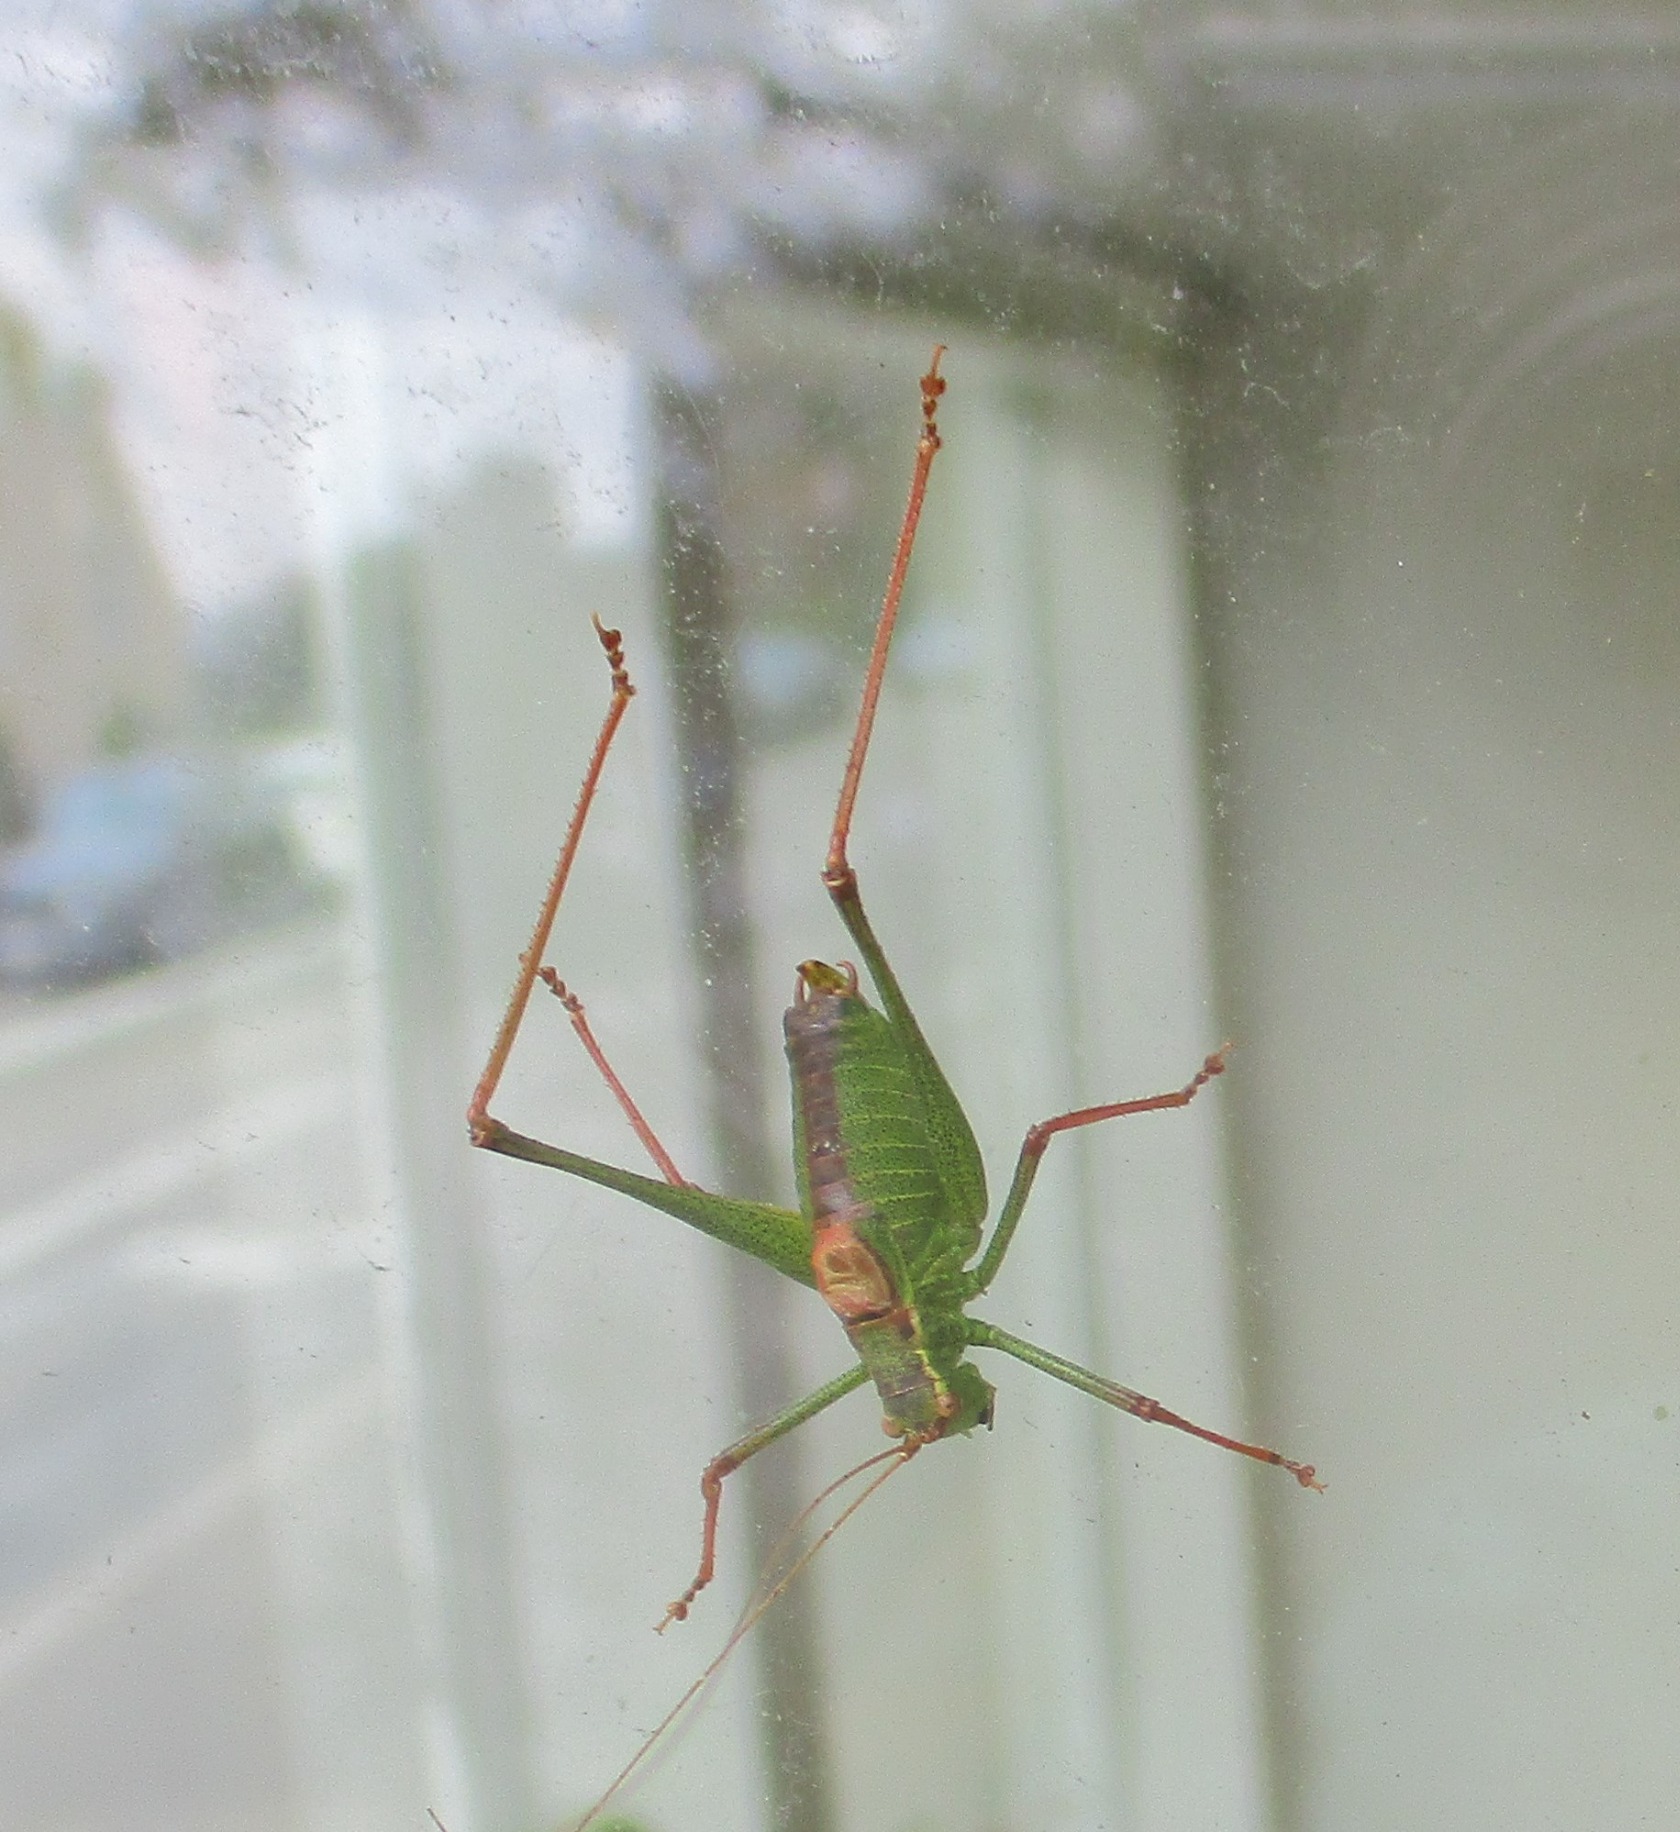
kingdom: Animalia
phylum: Arthropoda
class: Insecta
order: Orthoptera
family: Tettigoniidae
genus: Leptophyes
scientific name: Leptophyes punctatissima
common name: Krumknivgræshoppe
